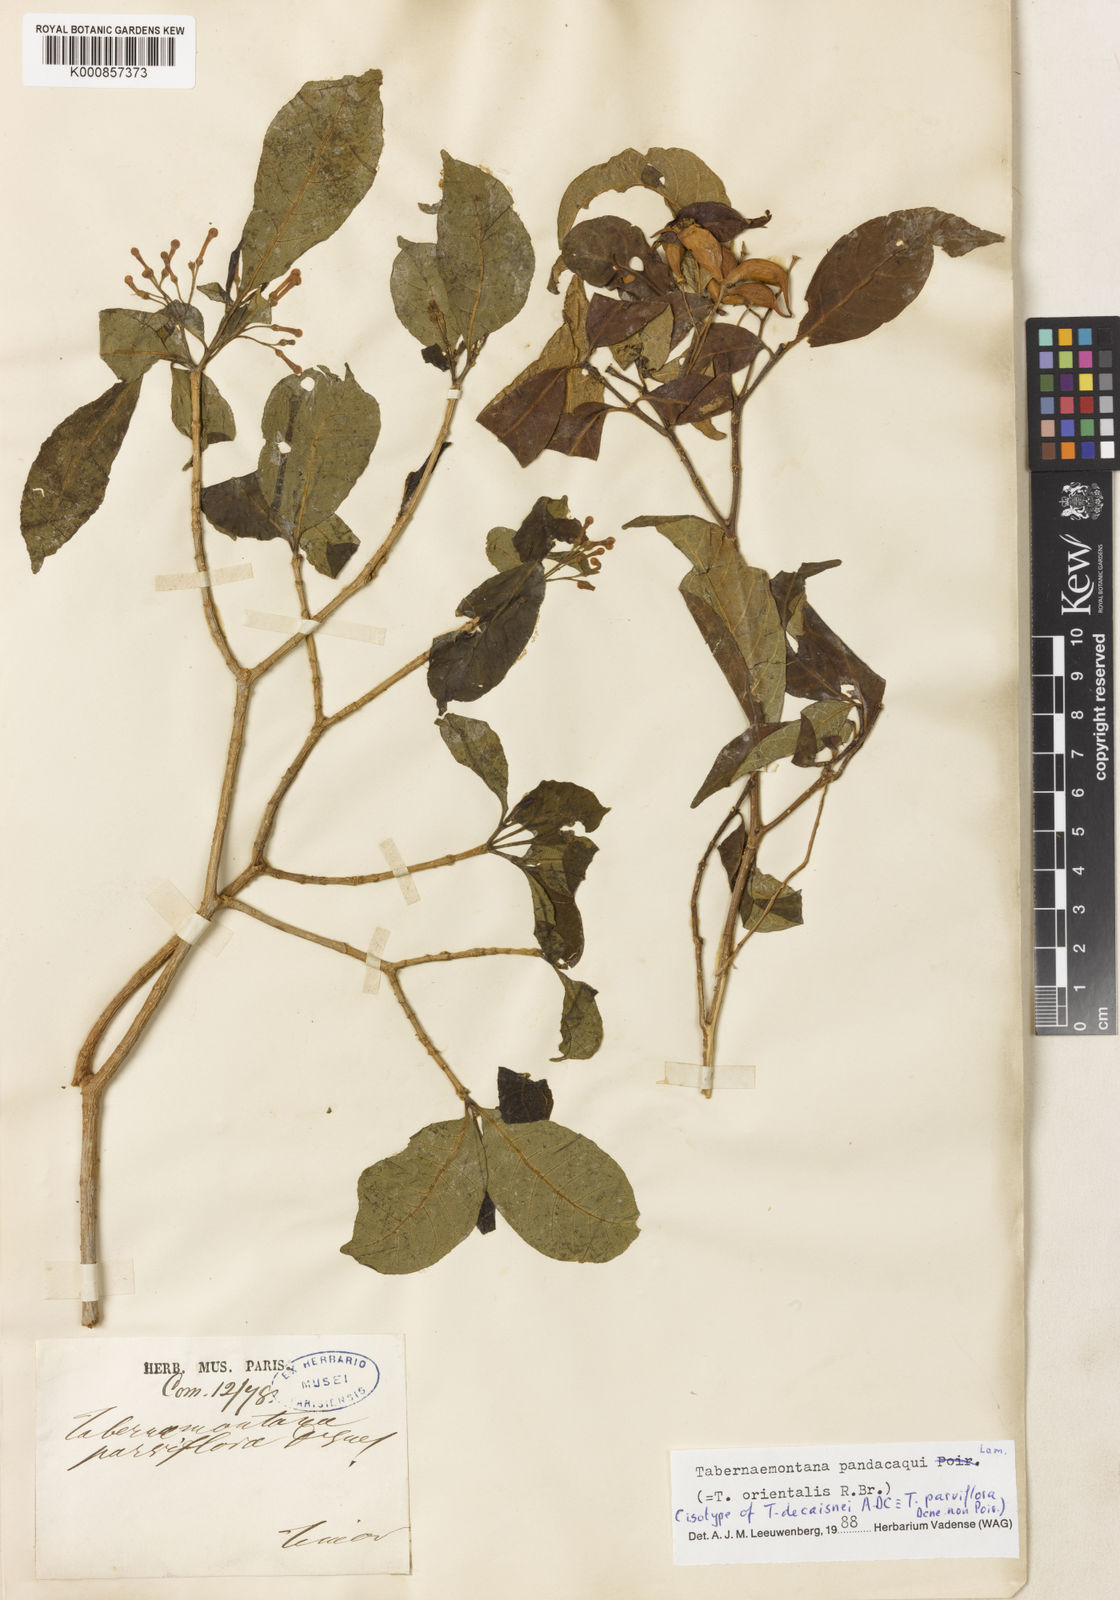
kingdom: Plantae
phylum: Tracheophyta
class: Magnoliopsida
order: Gentianales
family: Apocynaceae
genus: Tabernaemontana
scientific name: Tabernaemontana
